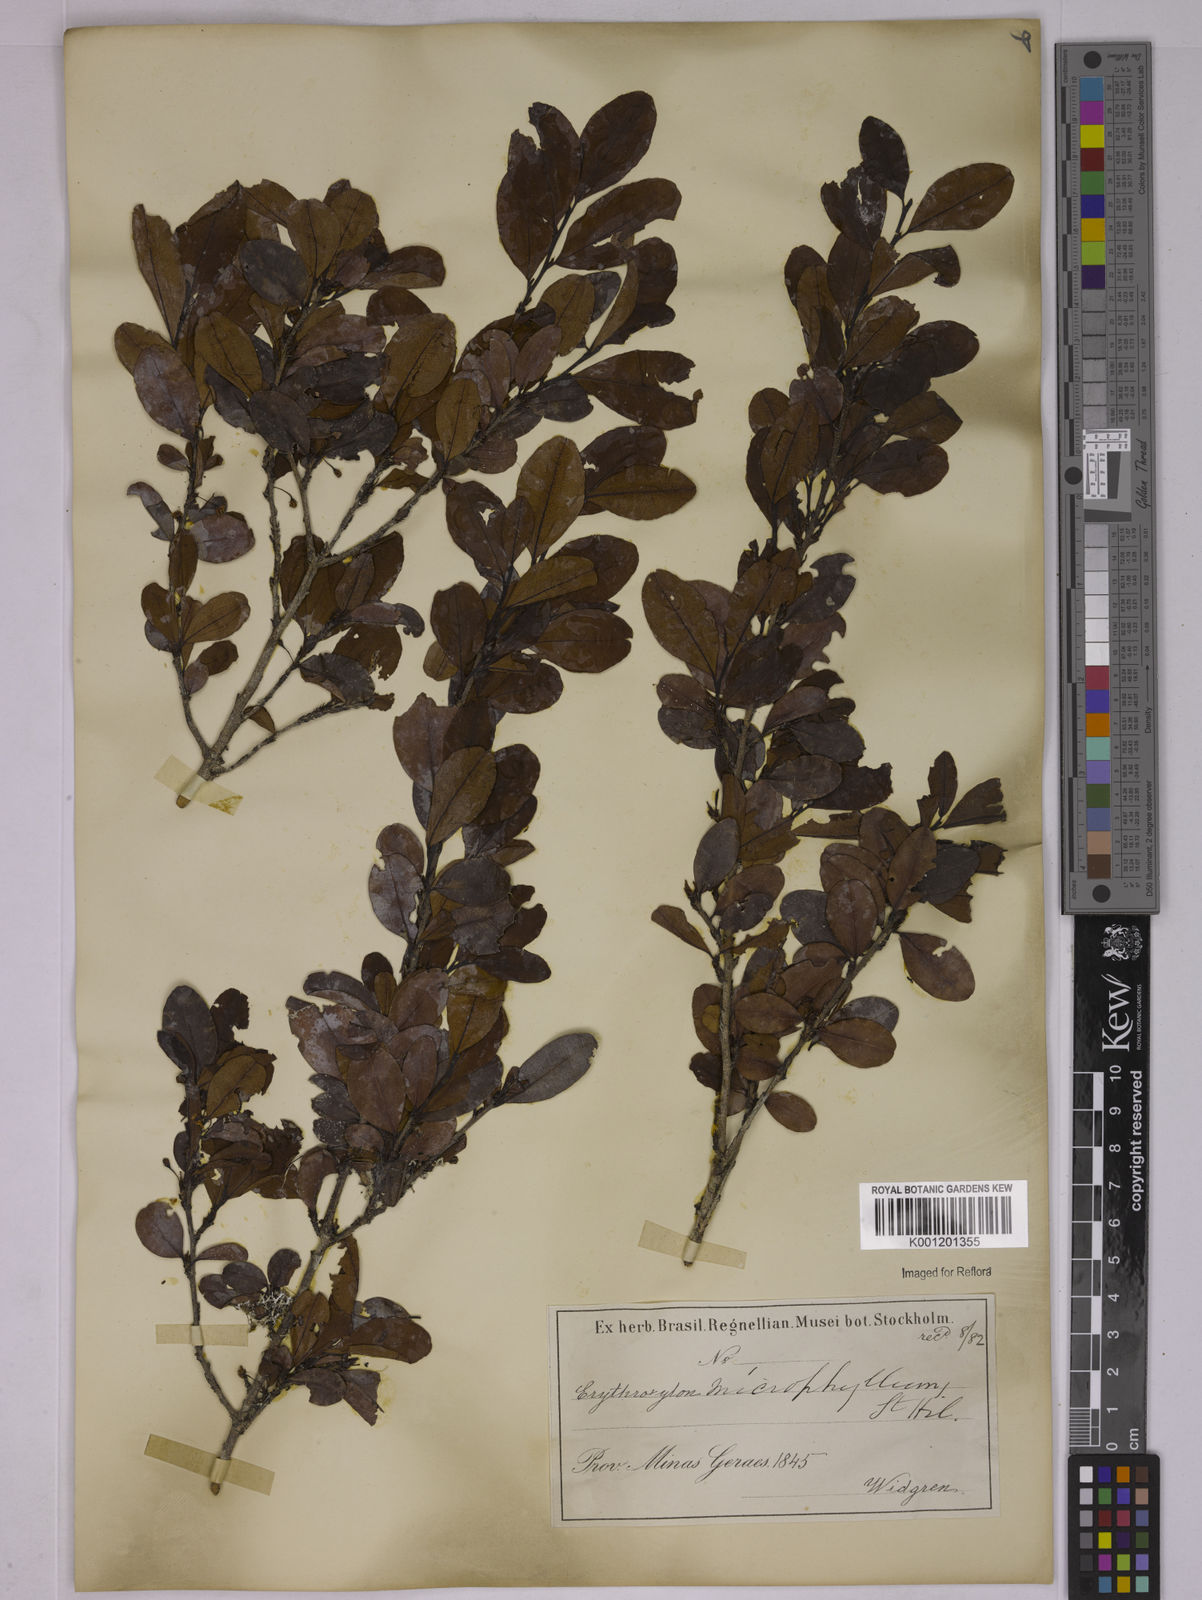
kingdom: Plantae
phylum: Tracheophyta
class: Magnoliopsida
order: Malpighiales
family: Erythroxylaceae
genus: Erythroxylum
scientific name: Erythroxylum
